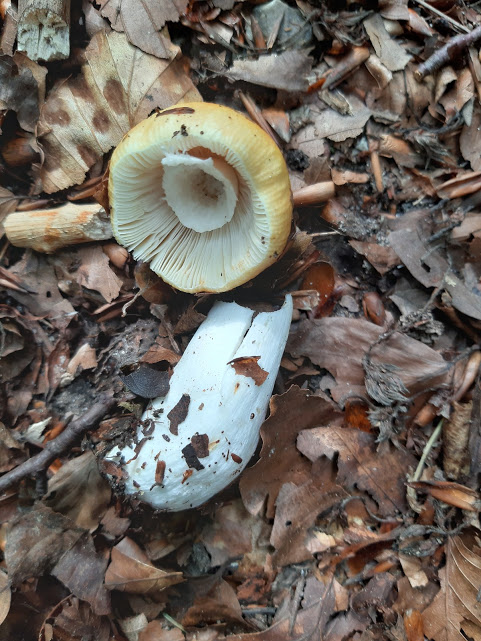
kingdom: Fungi
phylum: Basidiomycota
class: Agaricomycetes
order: Russulales
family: Russulaceae
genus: Russula
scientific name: Russula solaris
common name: sol-skørhat
